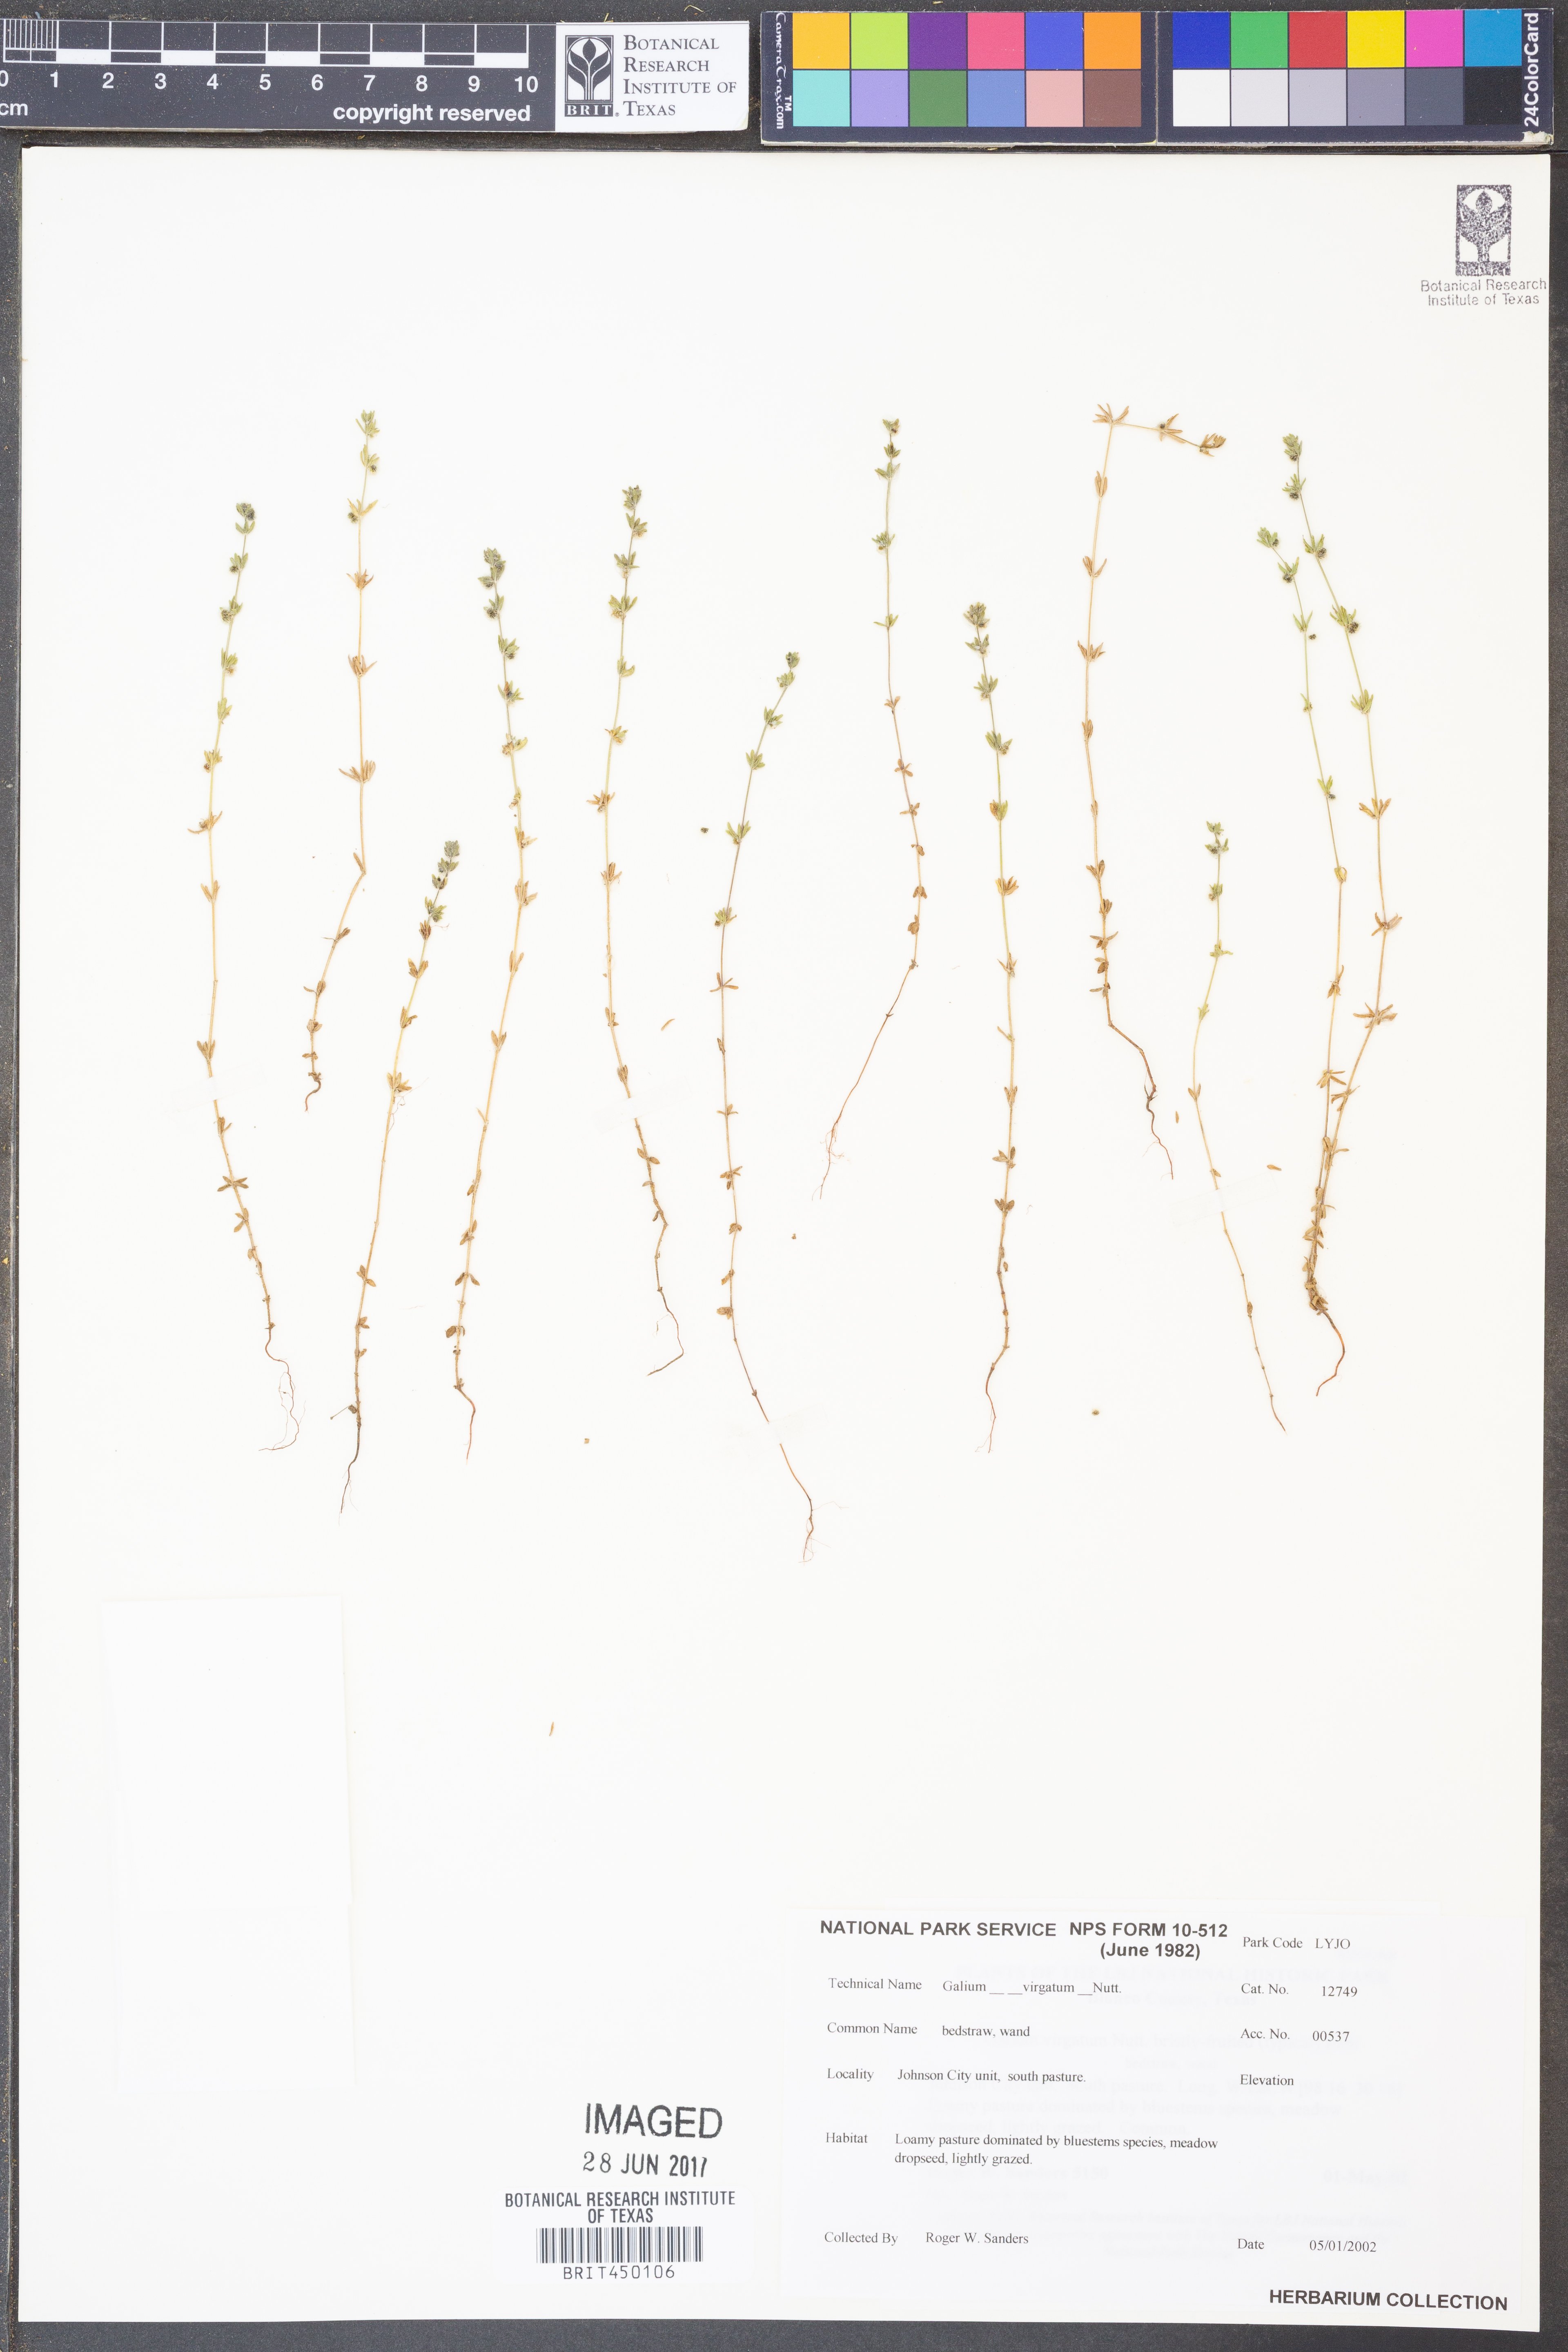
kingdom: Plantae
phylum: Tracheophyta
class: Magnoliopsida
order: Gentianales
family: Rubiaceae
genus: Galium
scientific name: Galium virgatum
